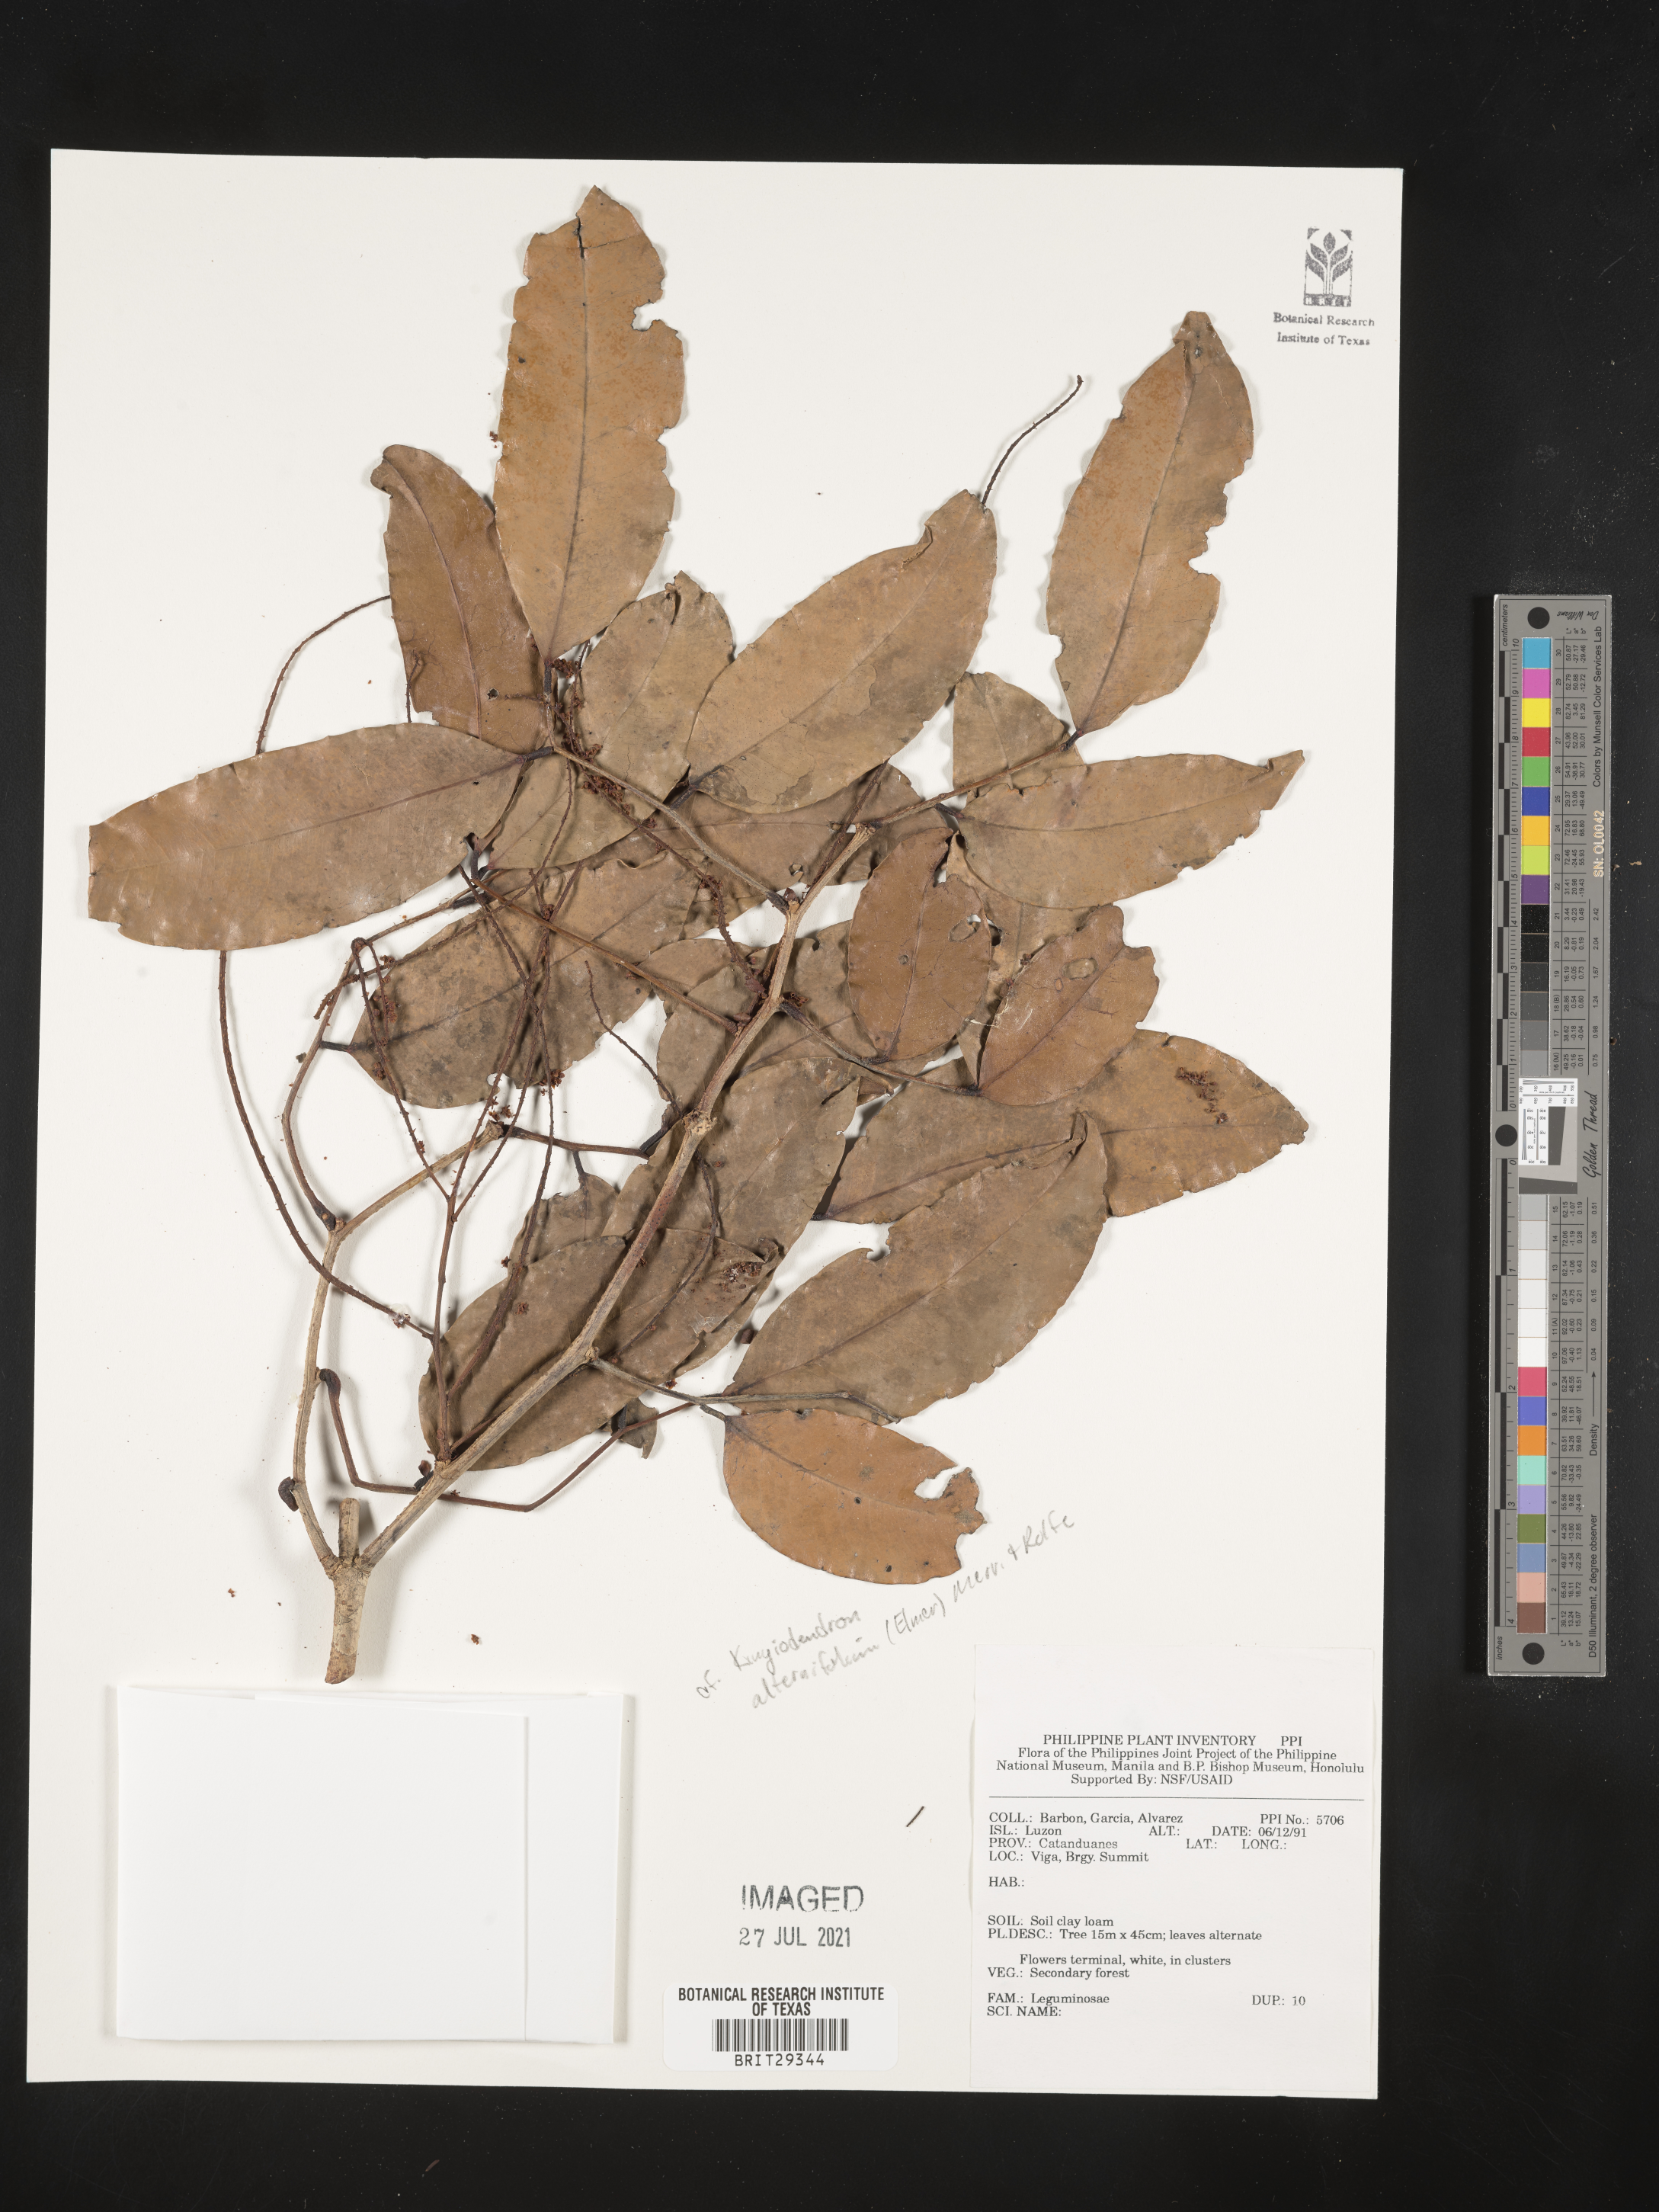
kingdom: Plantae
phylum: Tracheophyta
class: Magnoliopsida
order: Fabales
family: Fabaceae
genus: Prioria
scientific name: Prioria alternifolia
